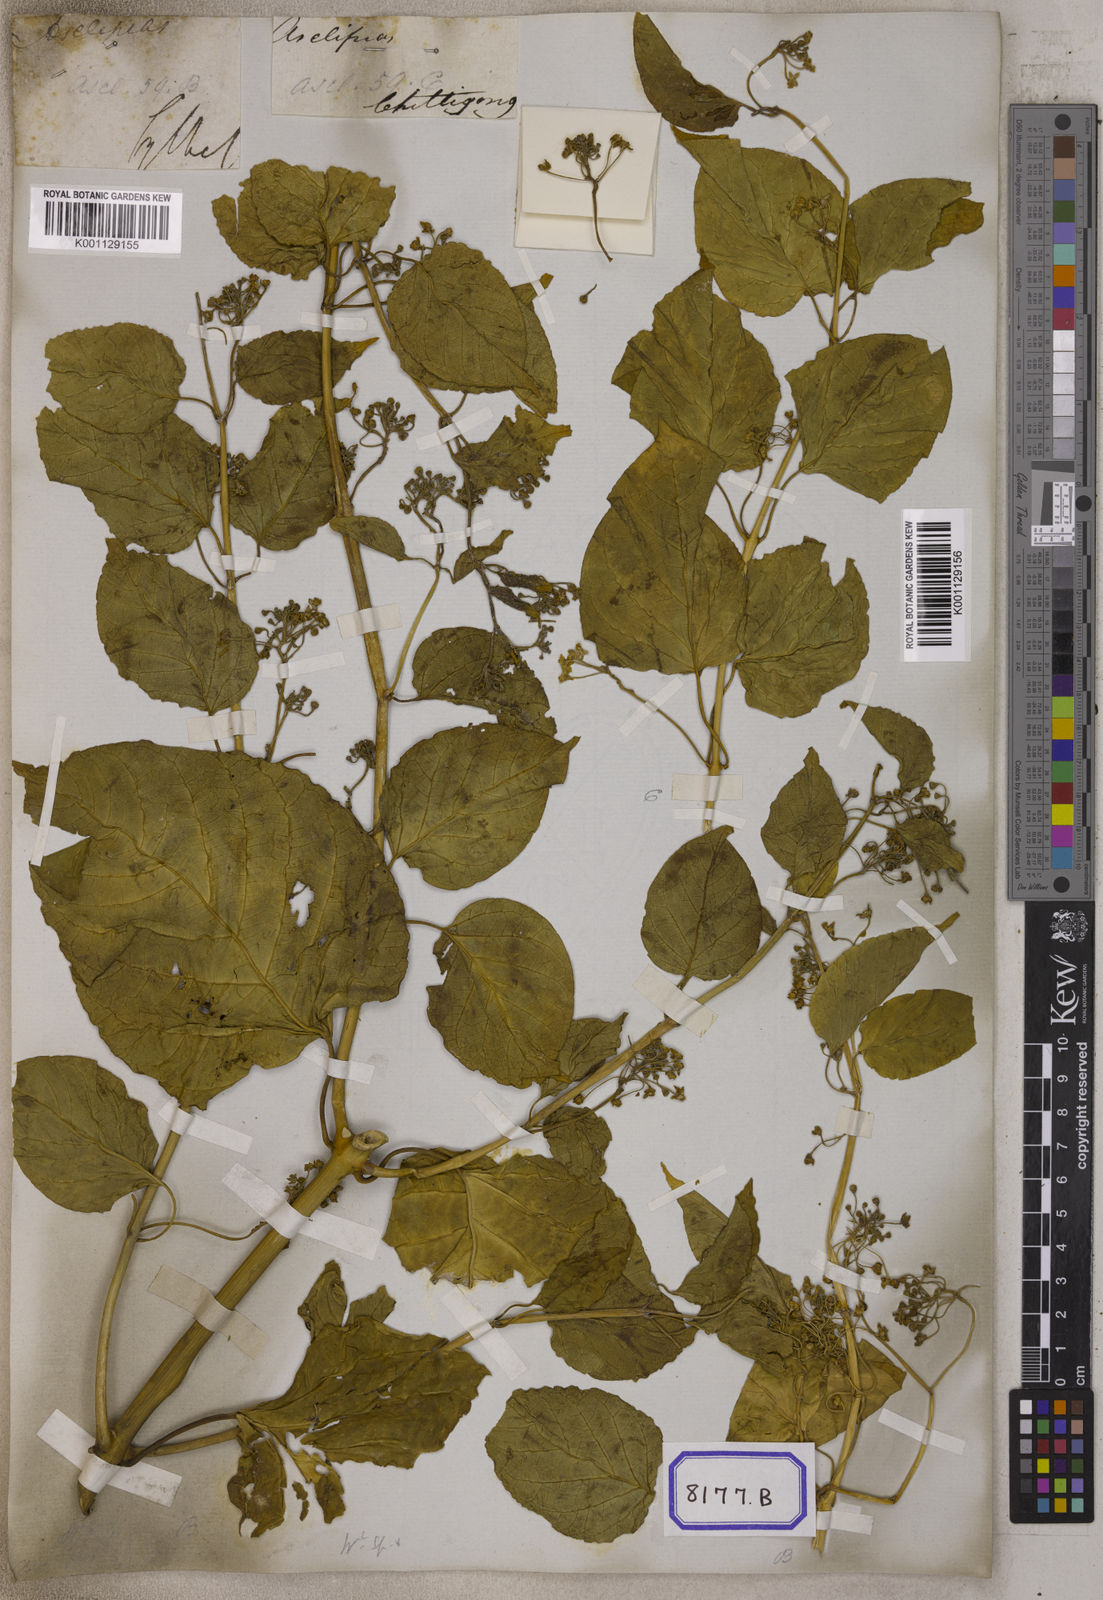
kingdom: Plantae
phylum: Tracheophyta
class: Magnoliopsida
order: Gentianales
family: Apocynaceae
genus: Cosmostigma
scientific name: Cosmostigma cordatum
